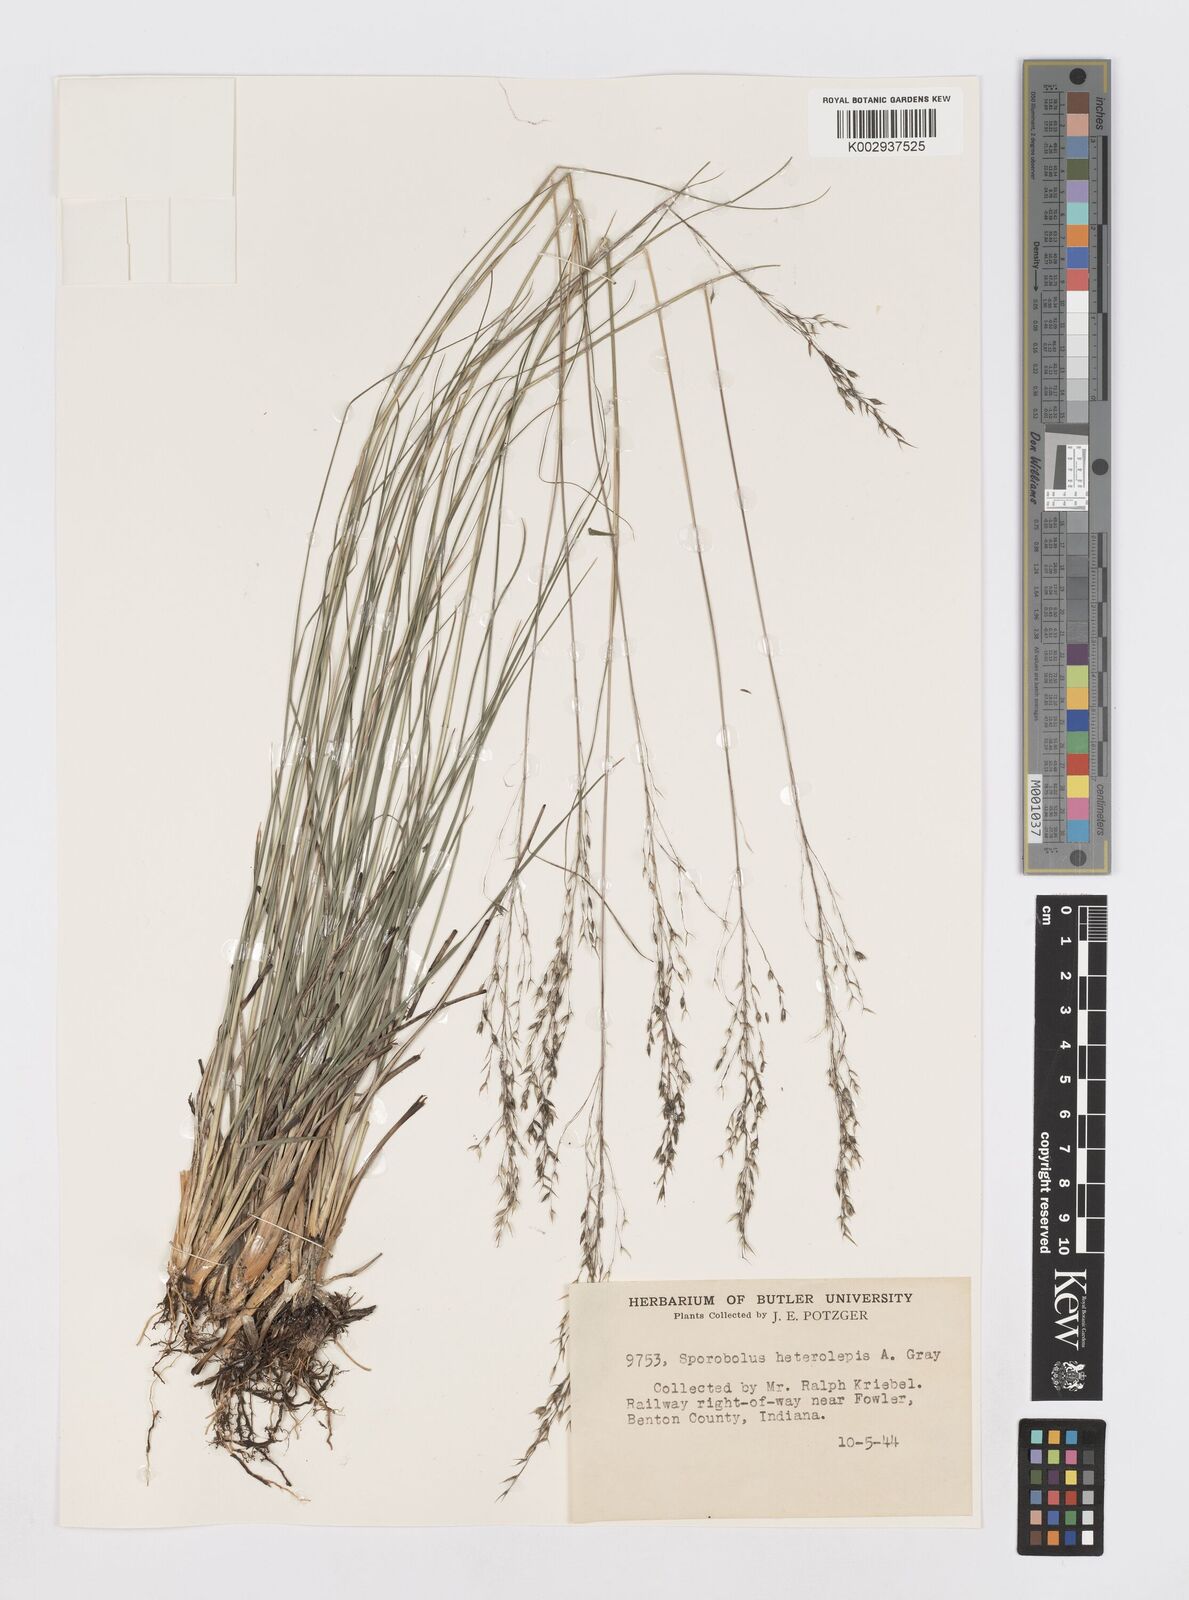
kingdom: Plantae
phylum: Tracheophyta
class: Liliopsida
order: Poales
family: Poaceae
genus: Sporobolus
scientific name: Sporobolus heterolepis
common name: Prairie dropseed
